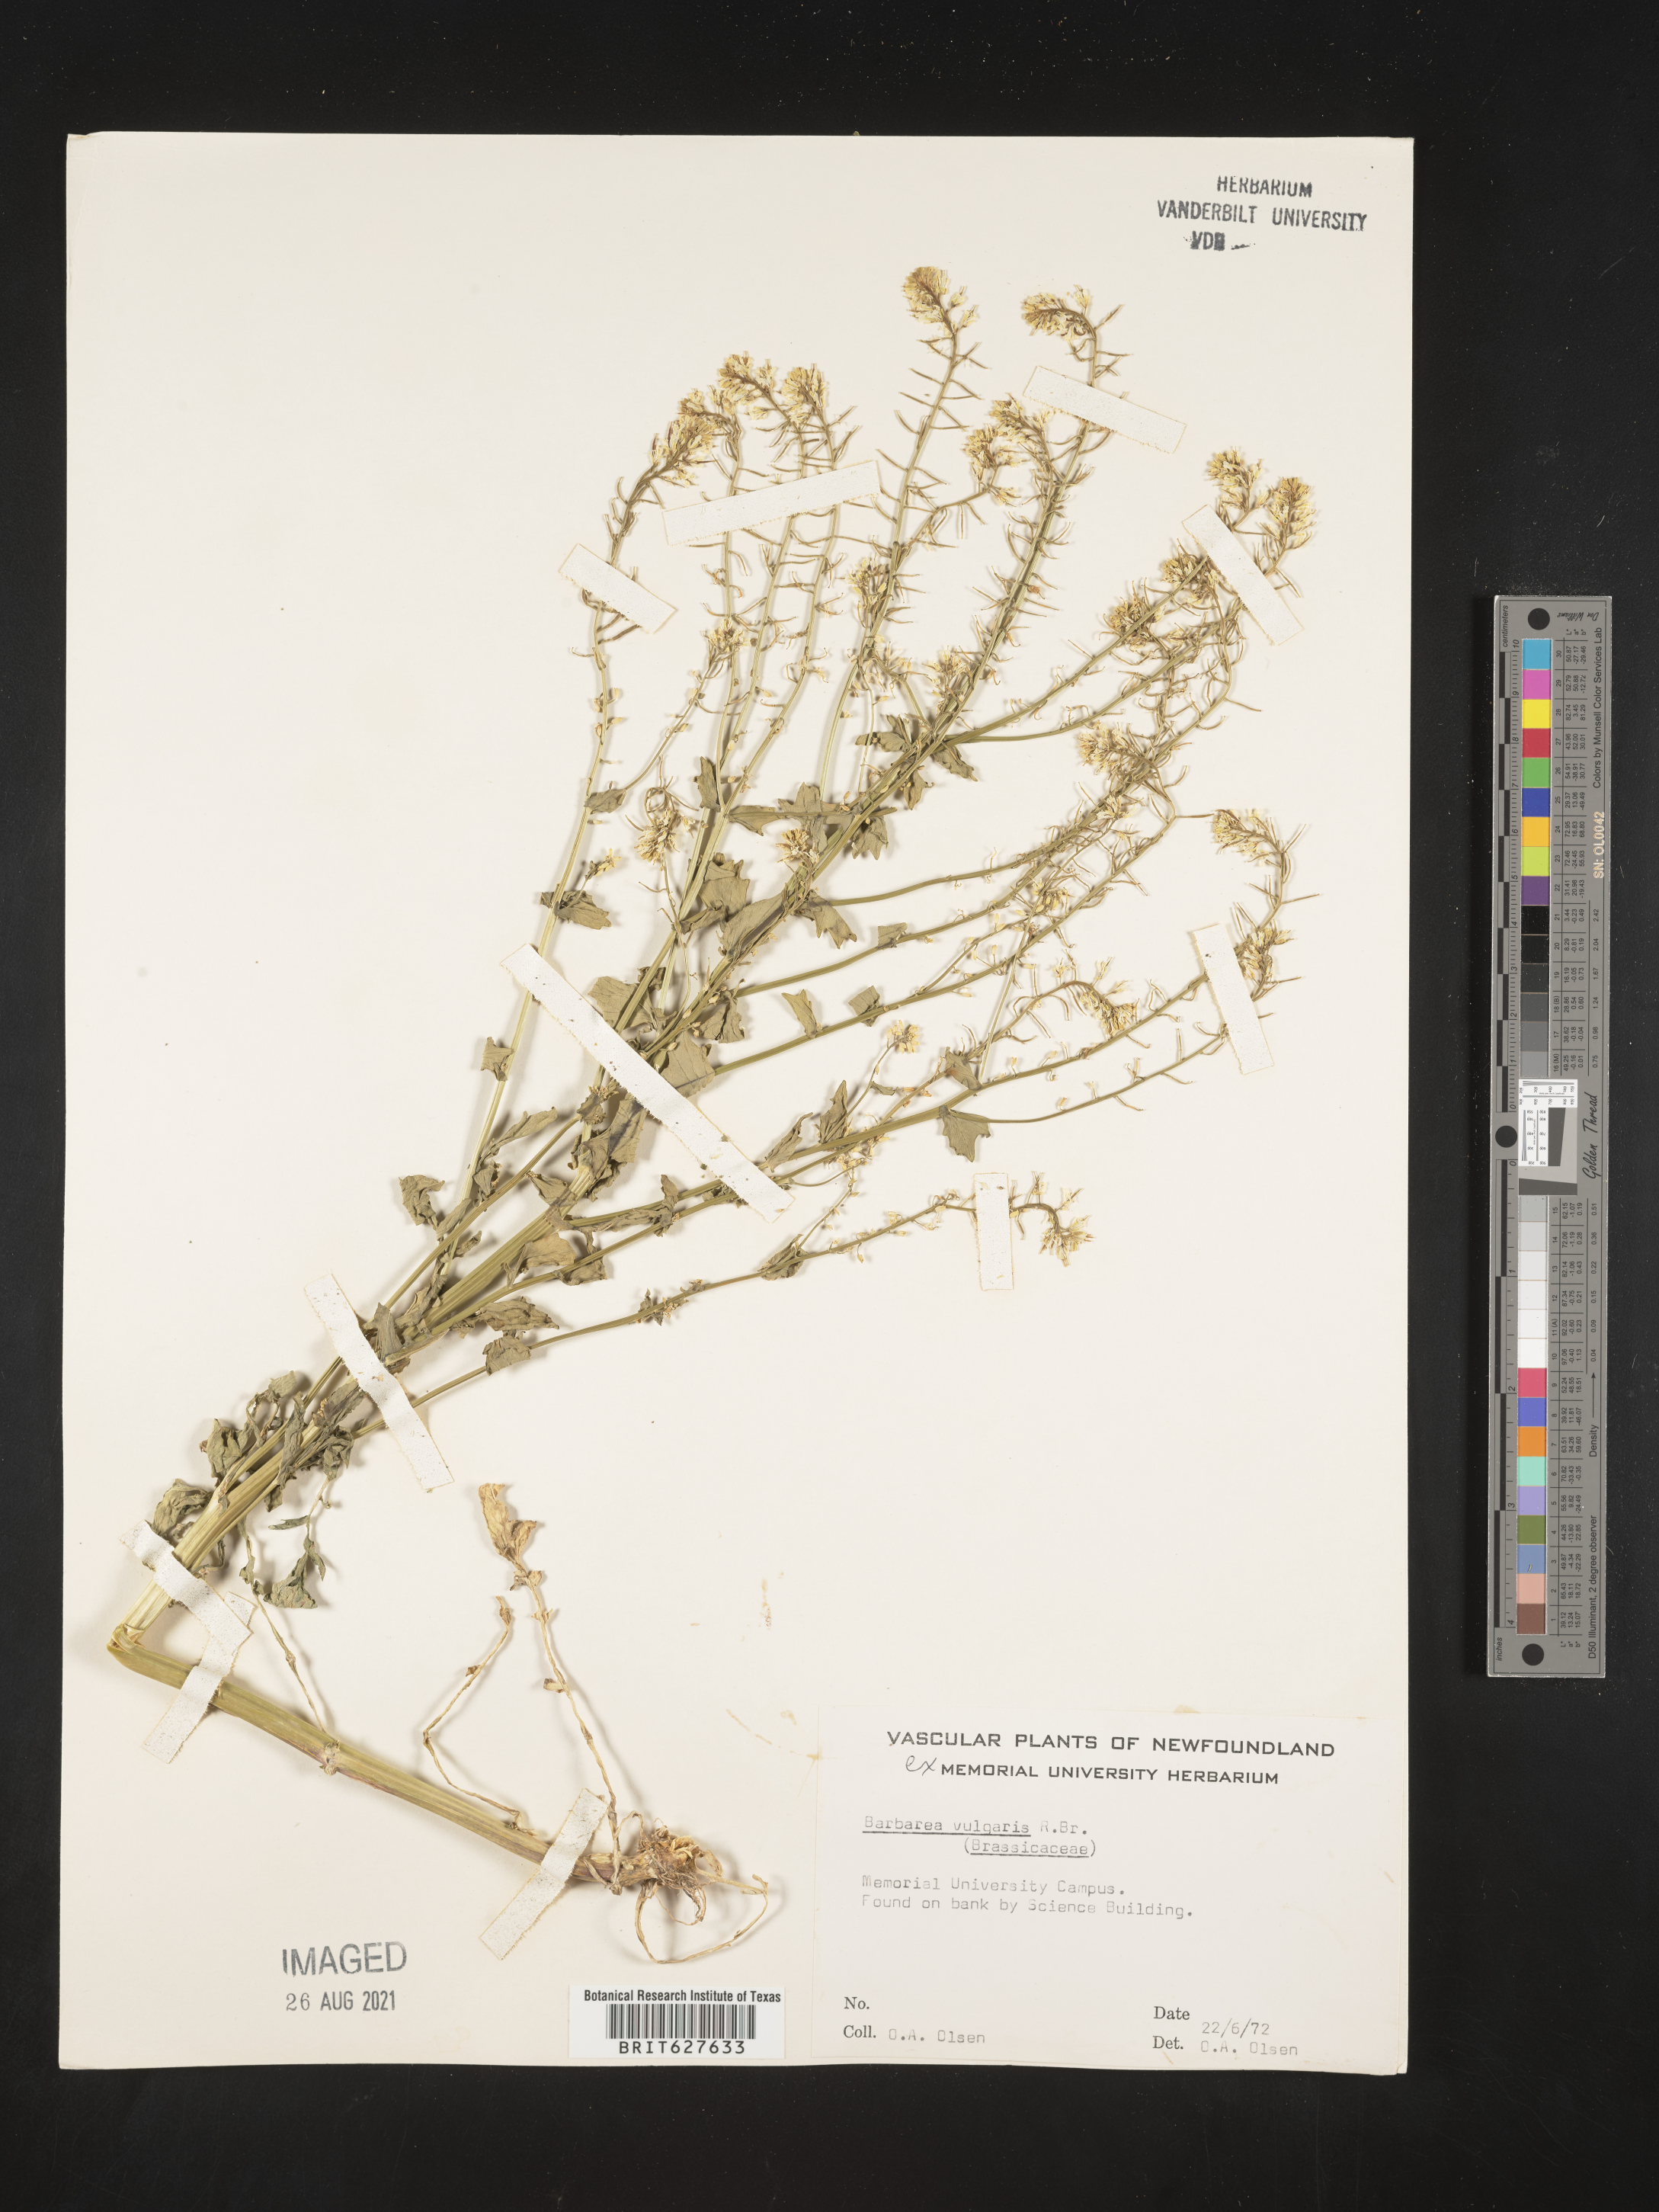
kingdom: Plantae
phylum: Tracheophyta
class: Magnoliopsida
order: Brassicales
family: Brassicaceae
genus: Barbarea
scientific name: Barbarea vulgaris
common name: Cressy-greens
